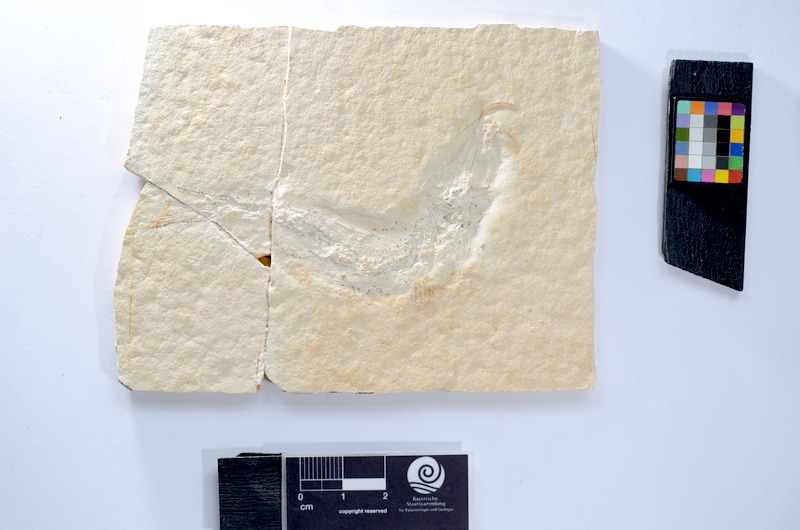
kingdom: Animalia
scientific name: Animalia
